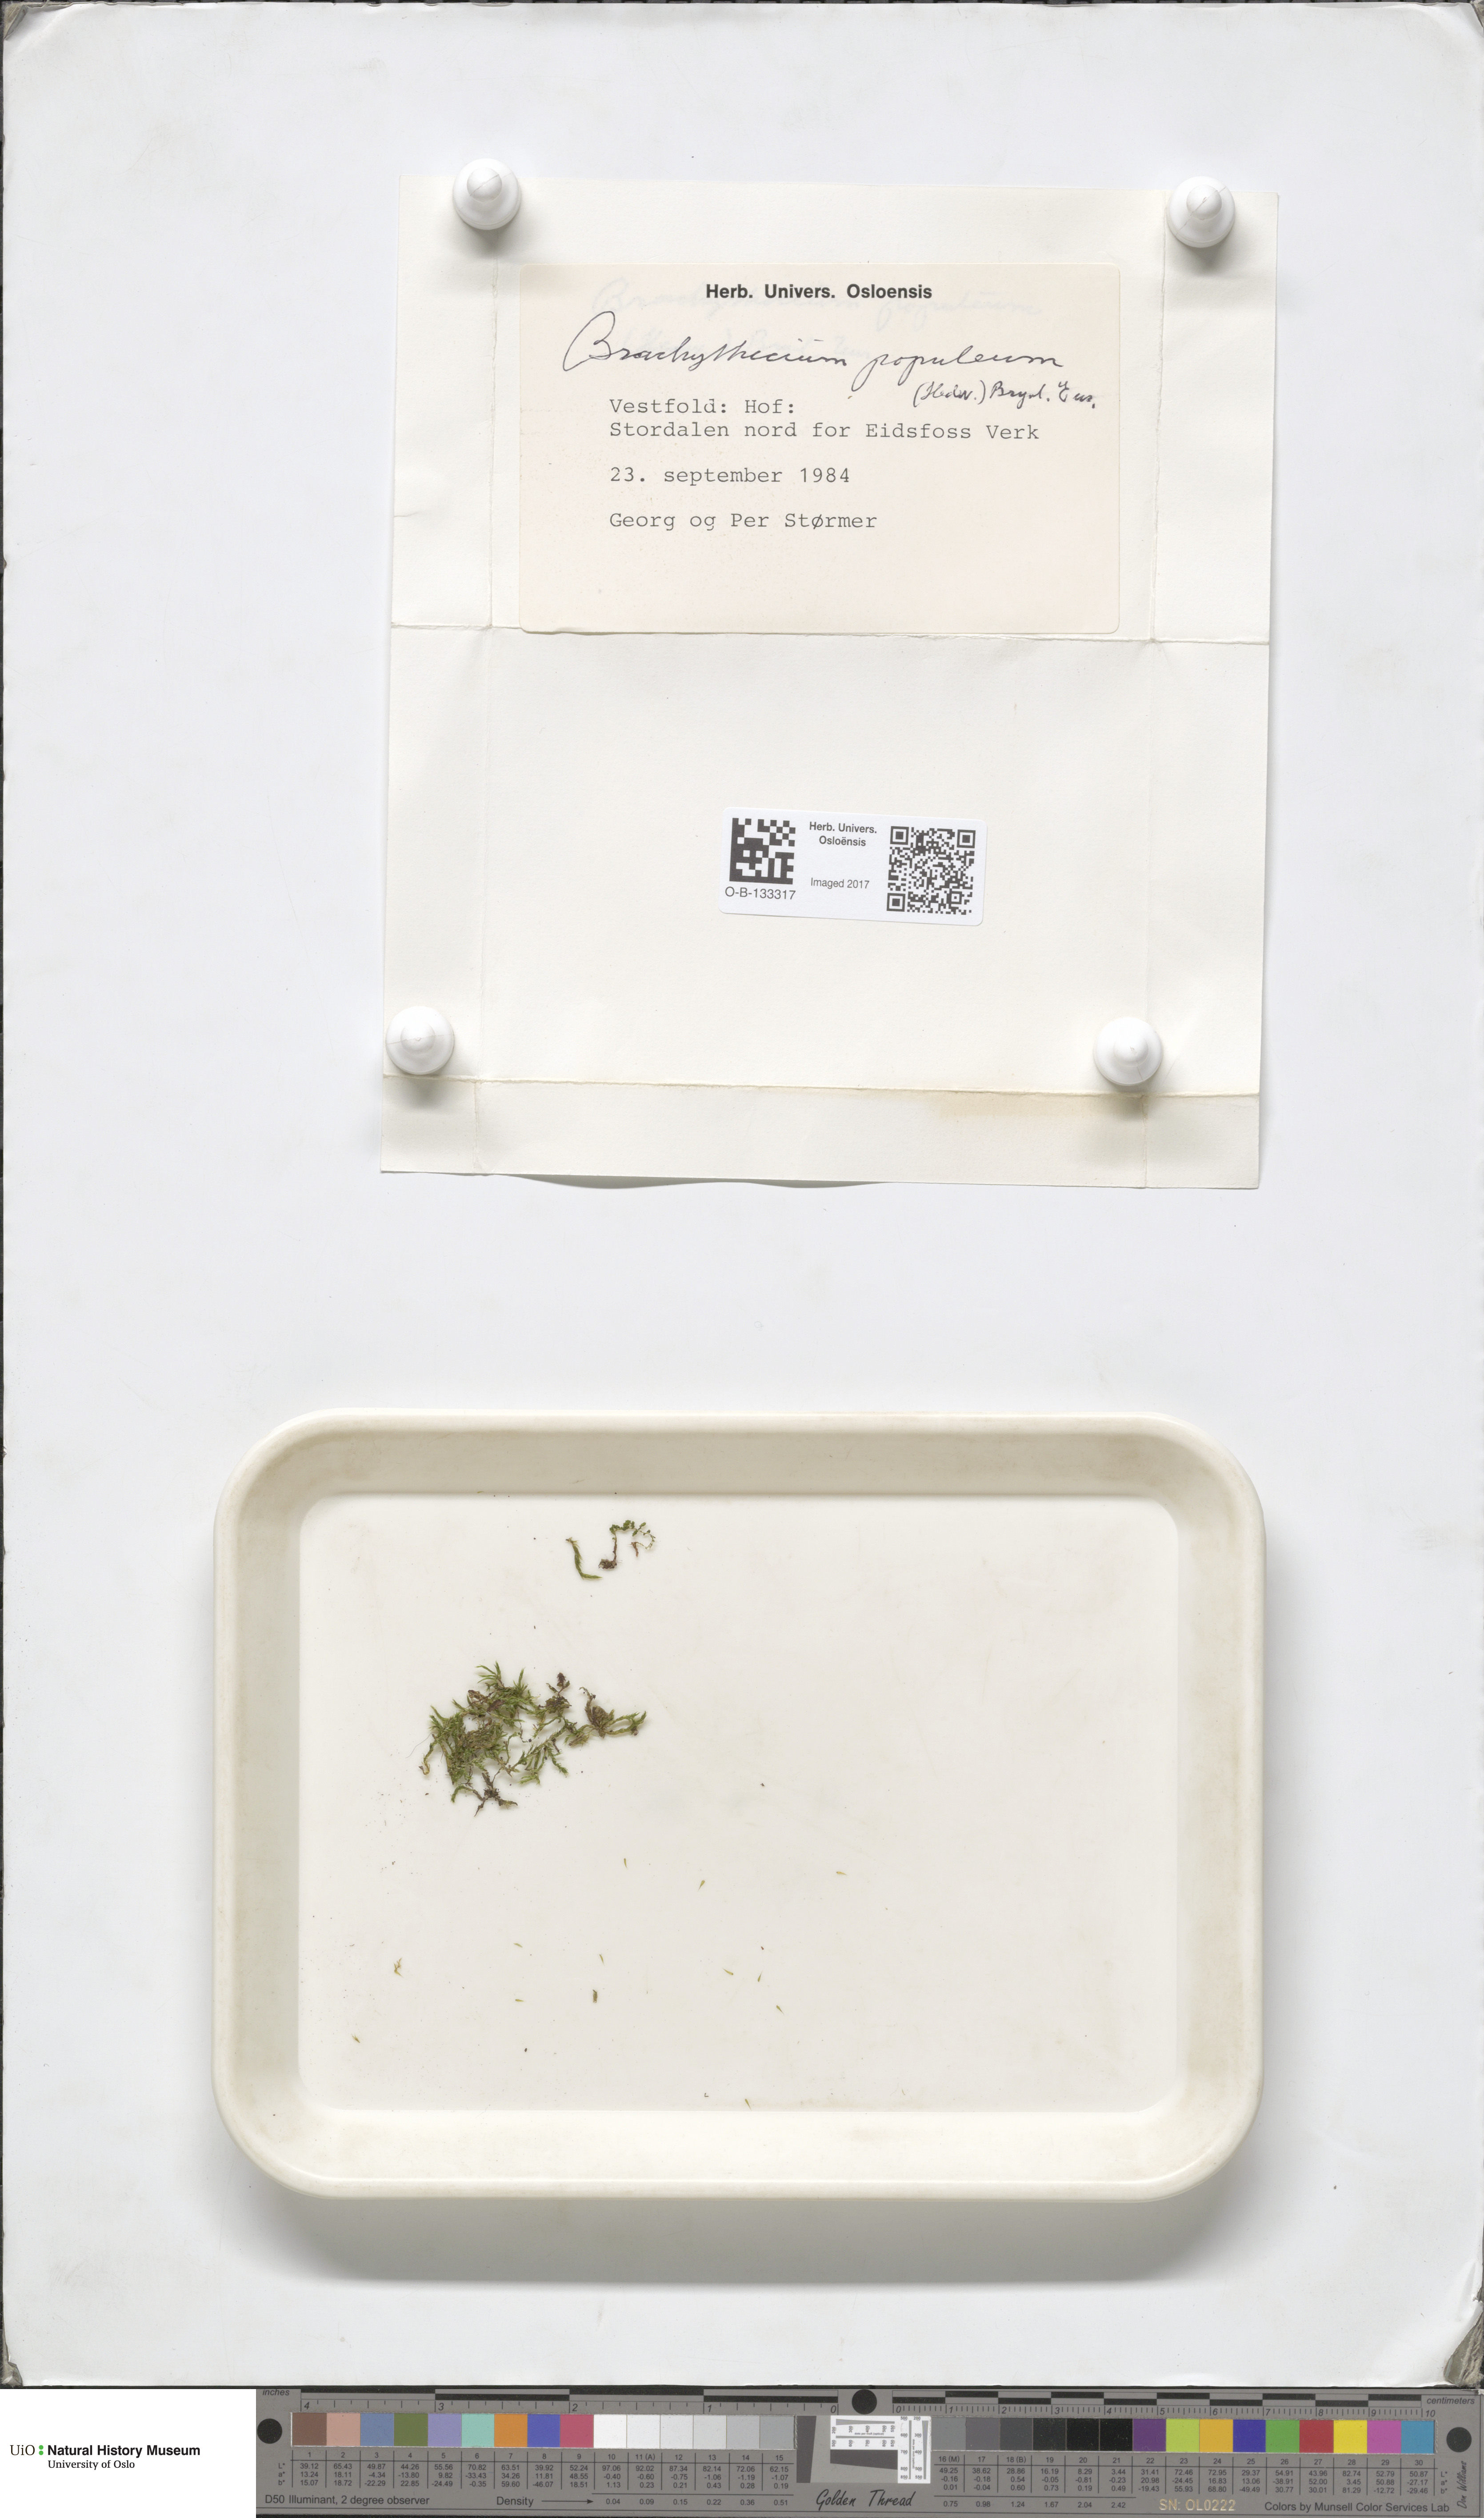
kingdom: Plantae
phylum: Bryophyta
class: Bryopsida
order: Hypnales
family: Brachytheciaceae
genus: Sciuro-hypnum
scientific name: Sciuro-hypnum plumosum
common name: Rusty feather-moss
